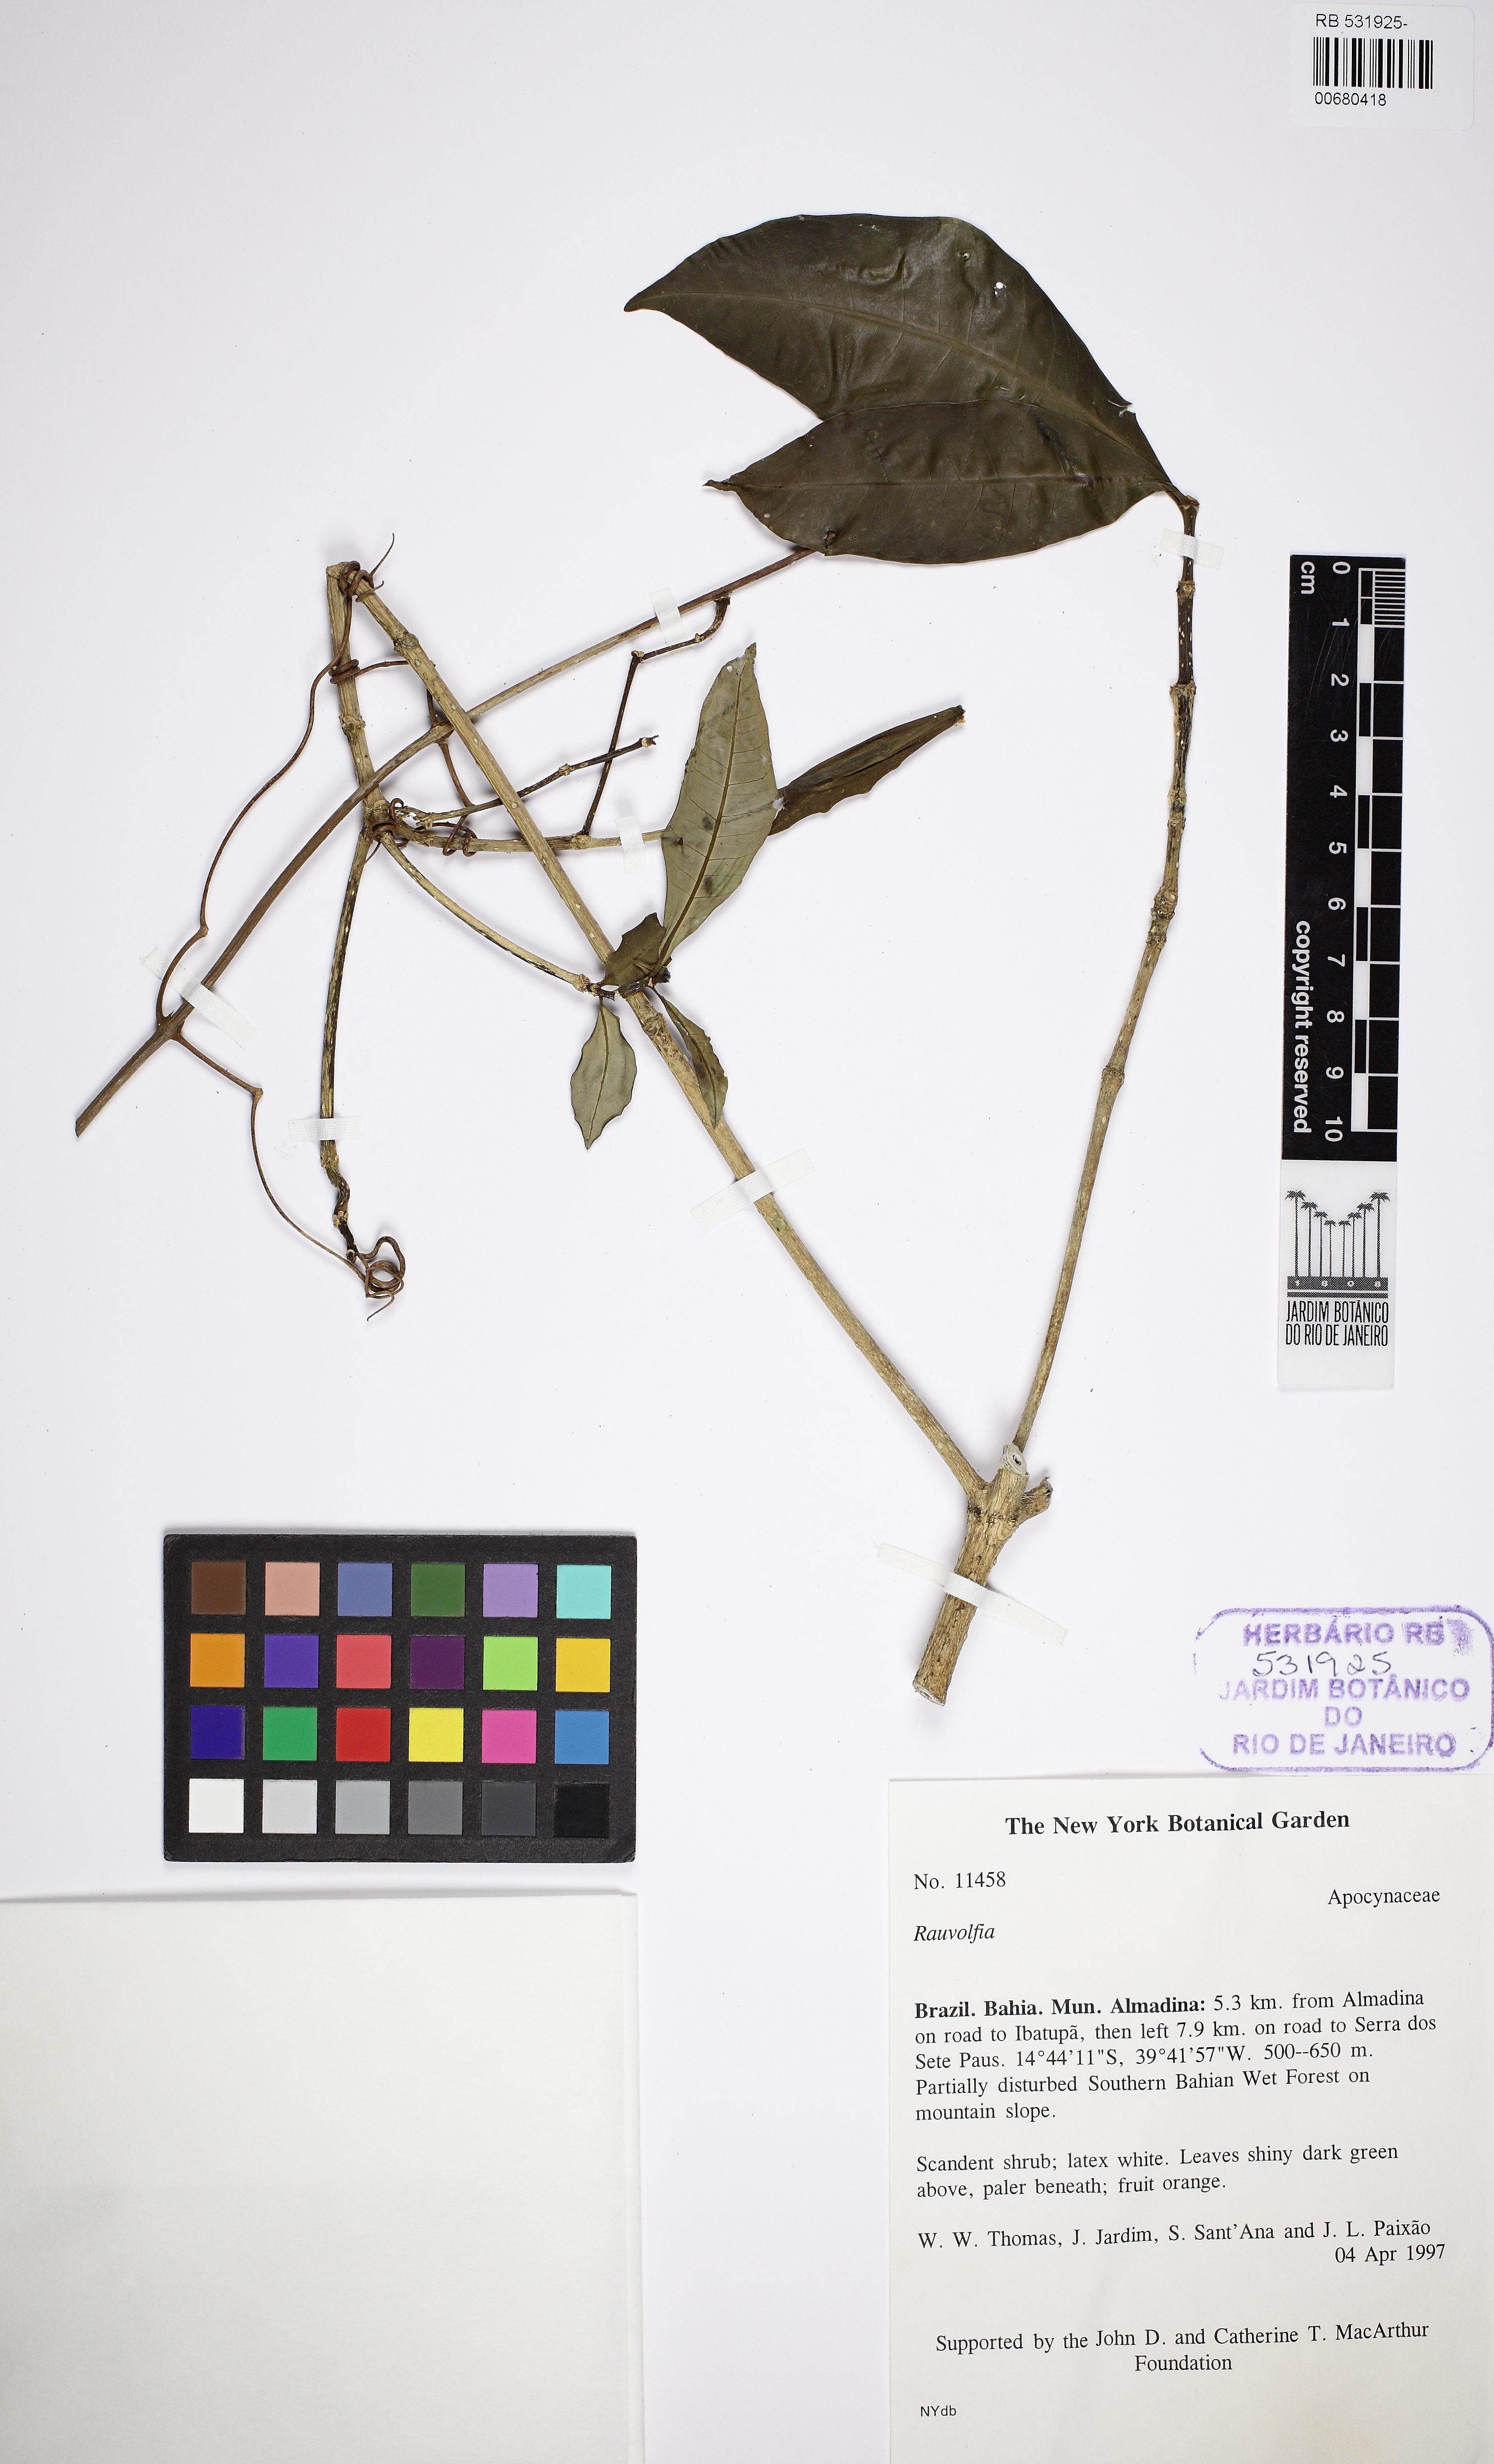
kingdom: Plantae
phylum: Tracheophyta
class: Magnoliopsida
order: Gentianales
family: Apocynaceae
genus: Rauvolfia
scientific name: Rauvolfia
